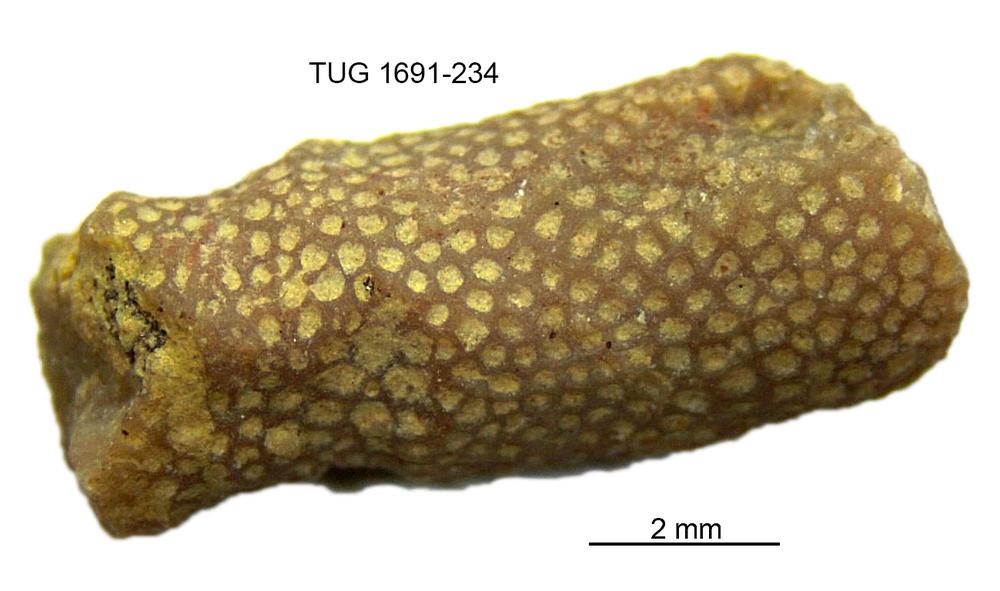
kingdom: Animalia
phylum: Bryozoa
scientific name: Bryozoa
